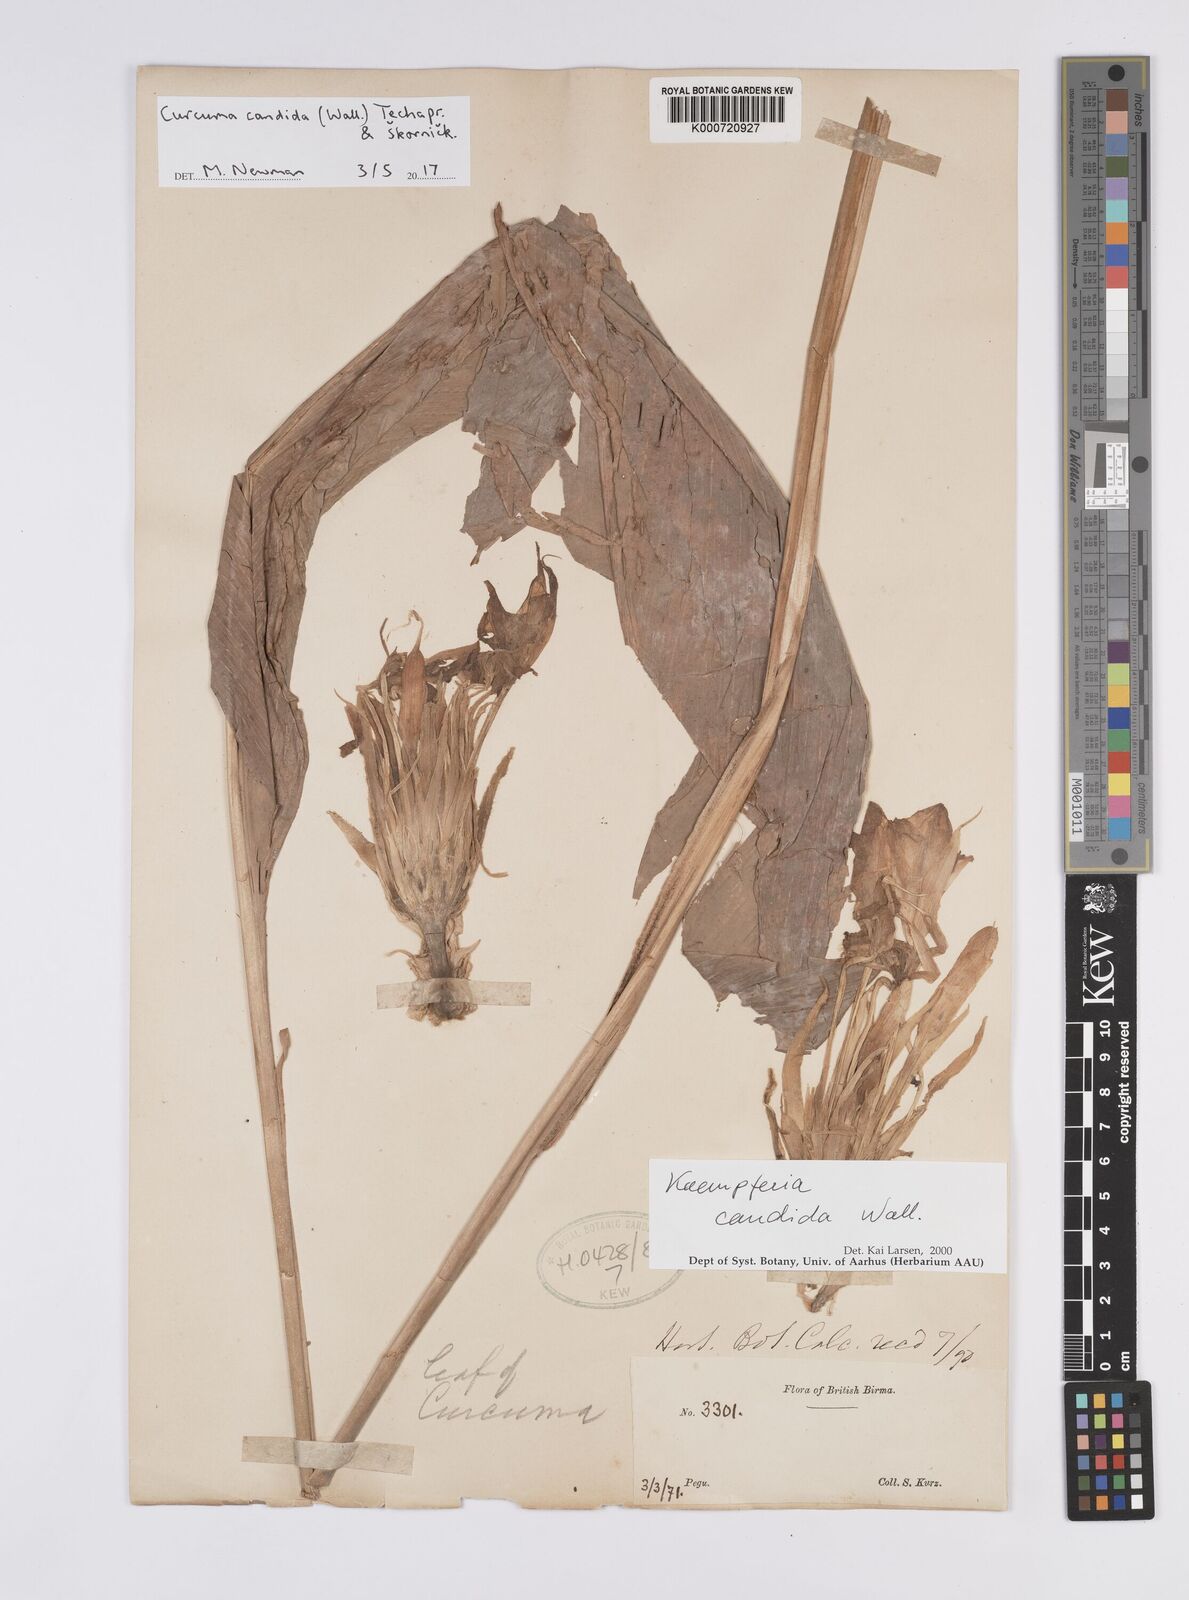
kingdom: Plantae
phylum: Tracheophyta
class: Liliopsida
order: Zingiberales
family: Zingiberaceae
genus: Curcuma
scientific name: Curcuma
